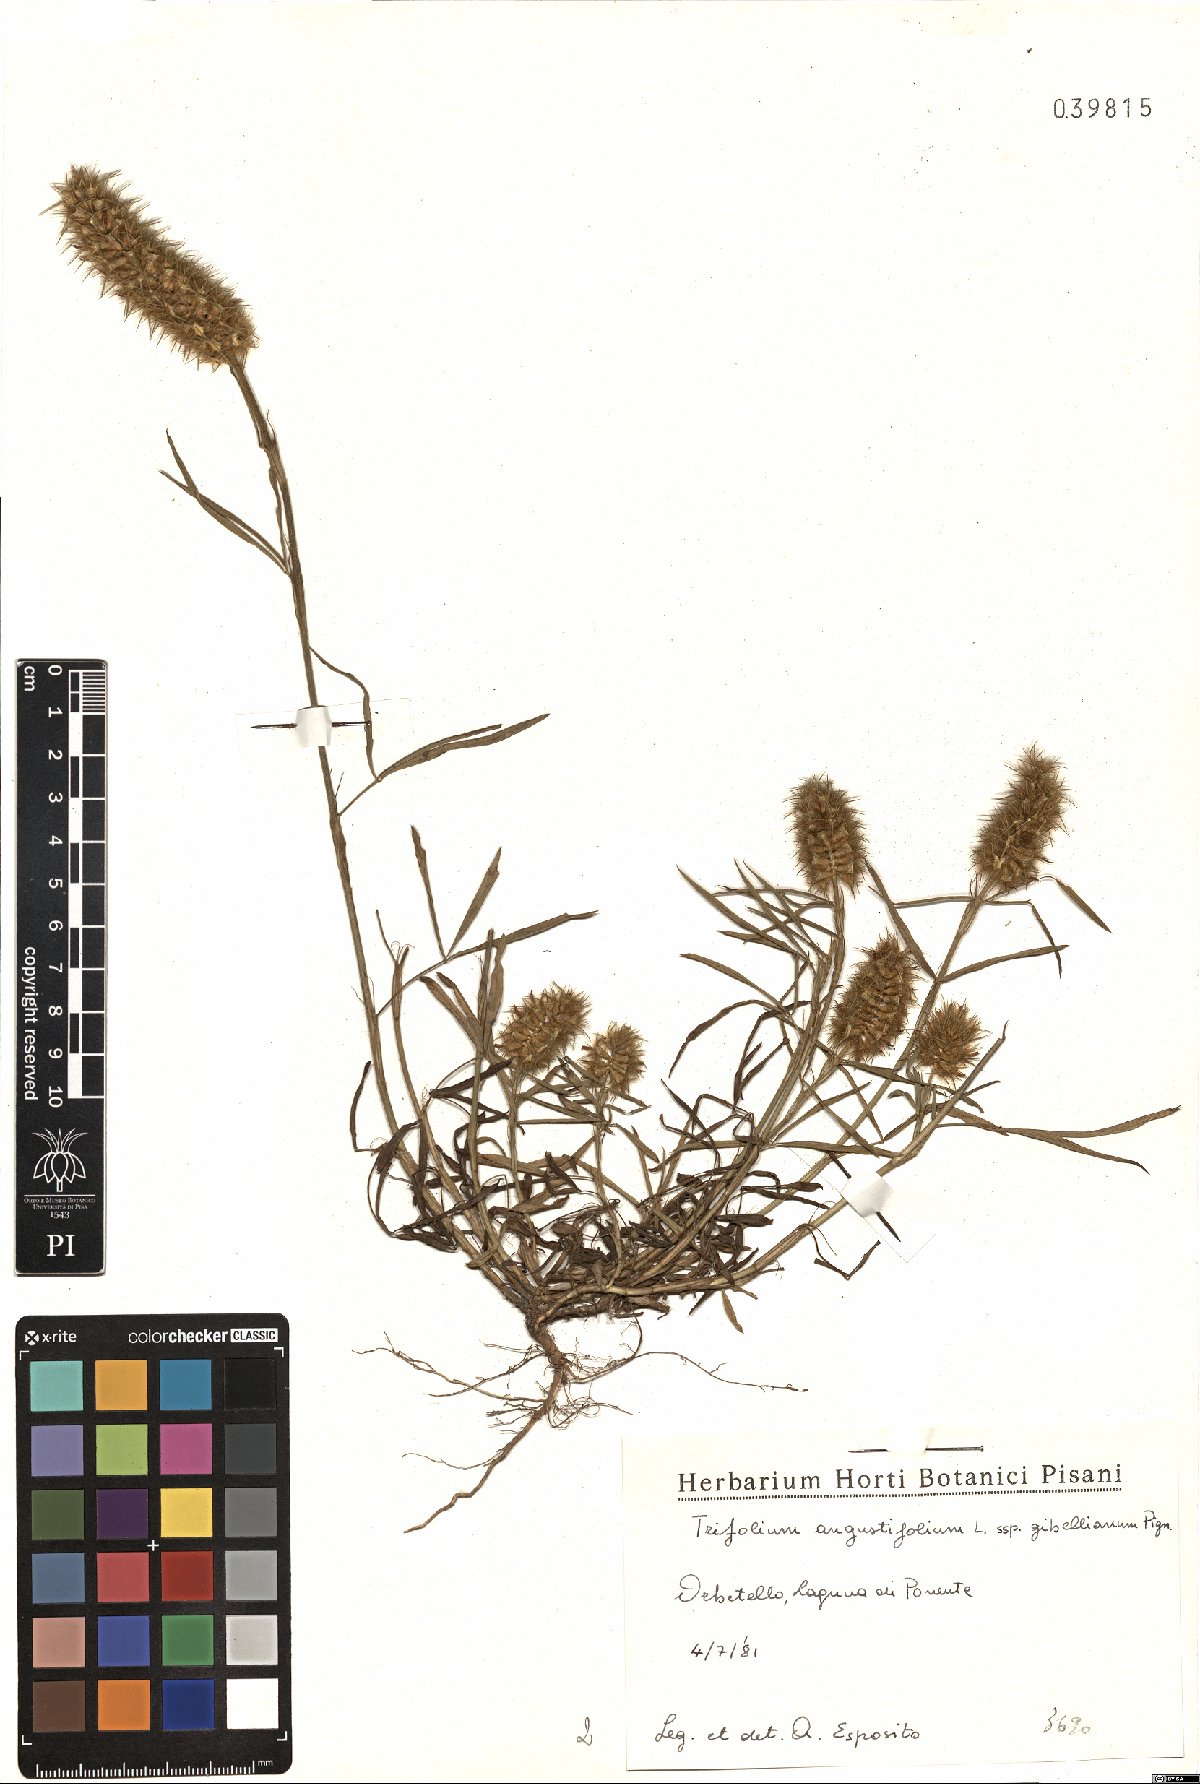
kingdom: Plantae
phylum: Tracheophyta
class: Magnoliopsida
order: Fabales
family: Fabaceae
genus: Trifolium
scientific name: Trifolium infamia-ponertii
